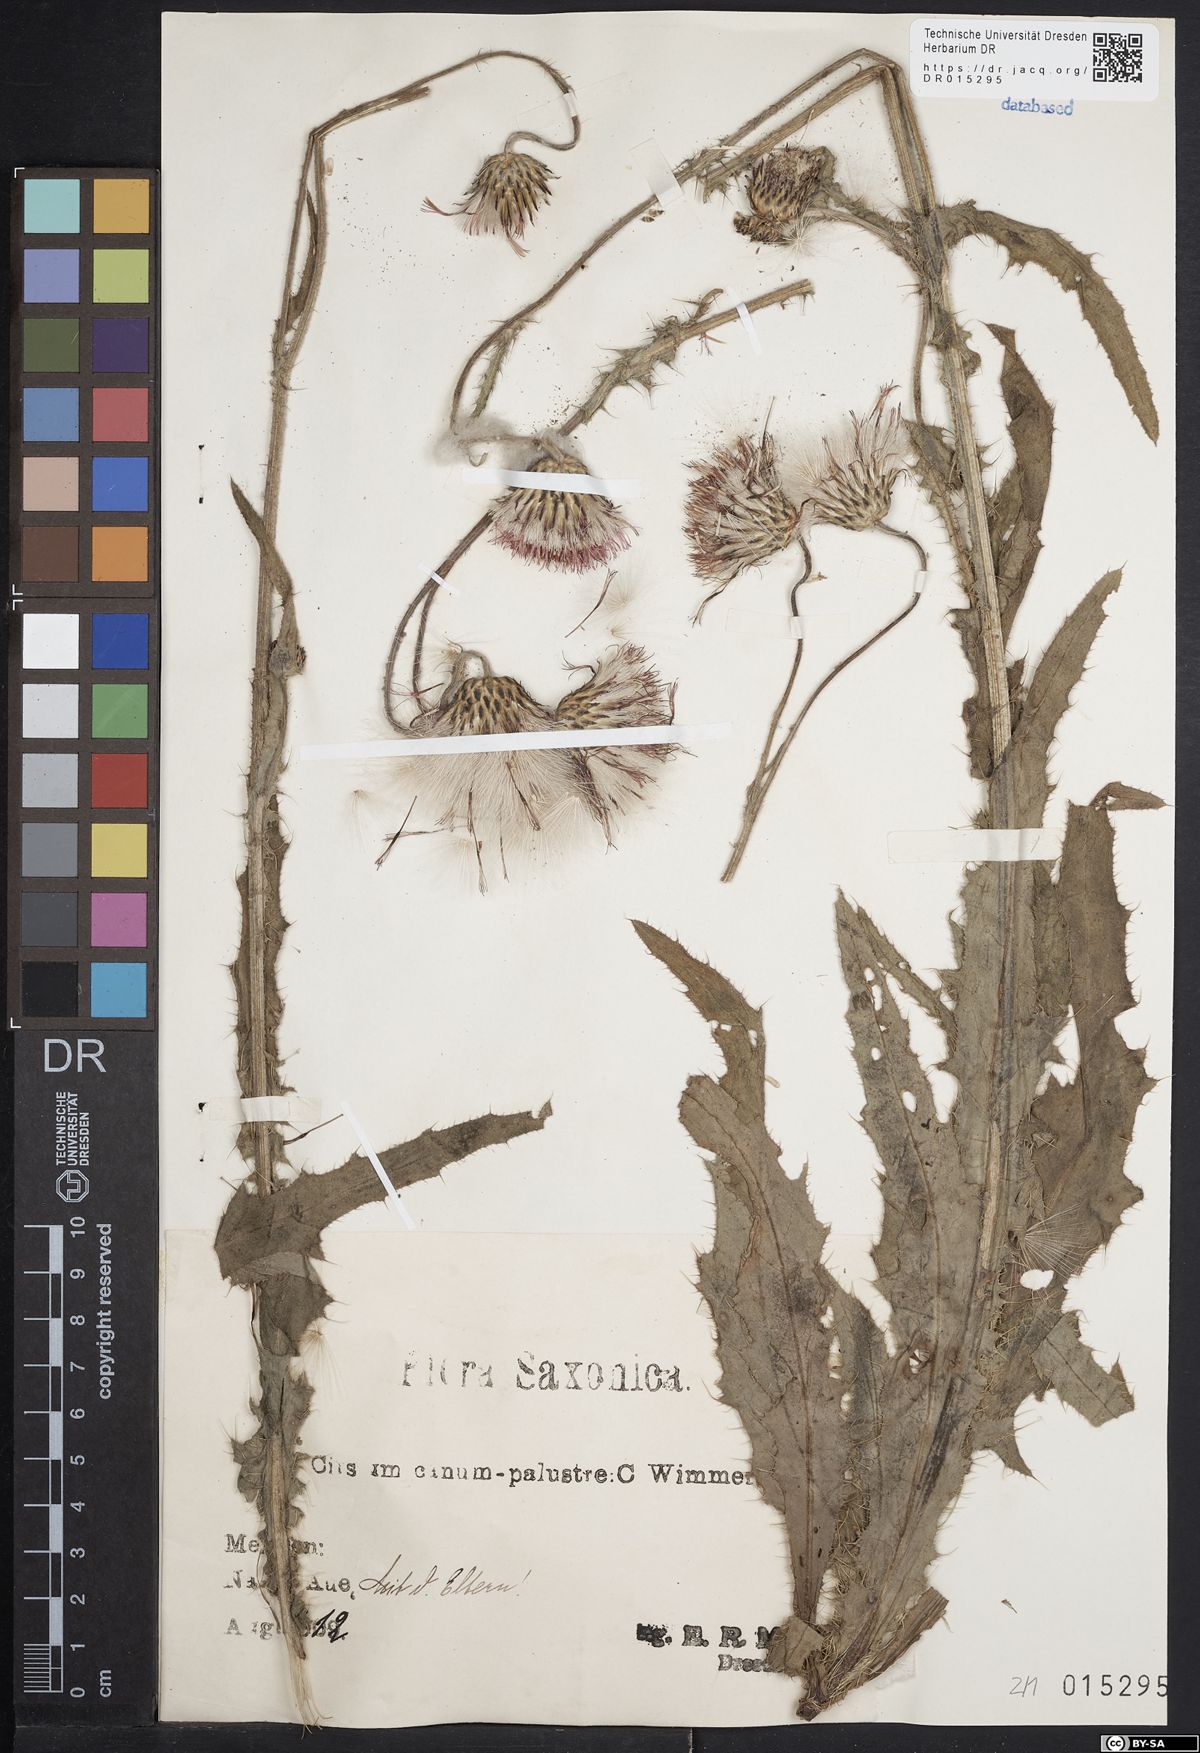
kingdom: Plantae
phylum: Tracheophyta
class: Magnoliopsida
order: Asterales
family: Asteraceae
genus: Cirsium
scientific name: Cirsium silesiacum
